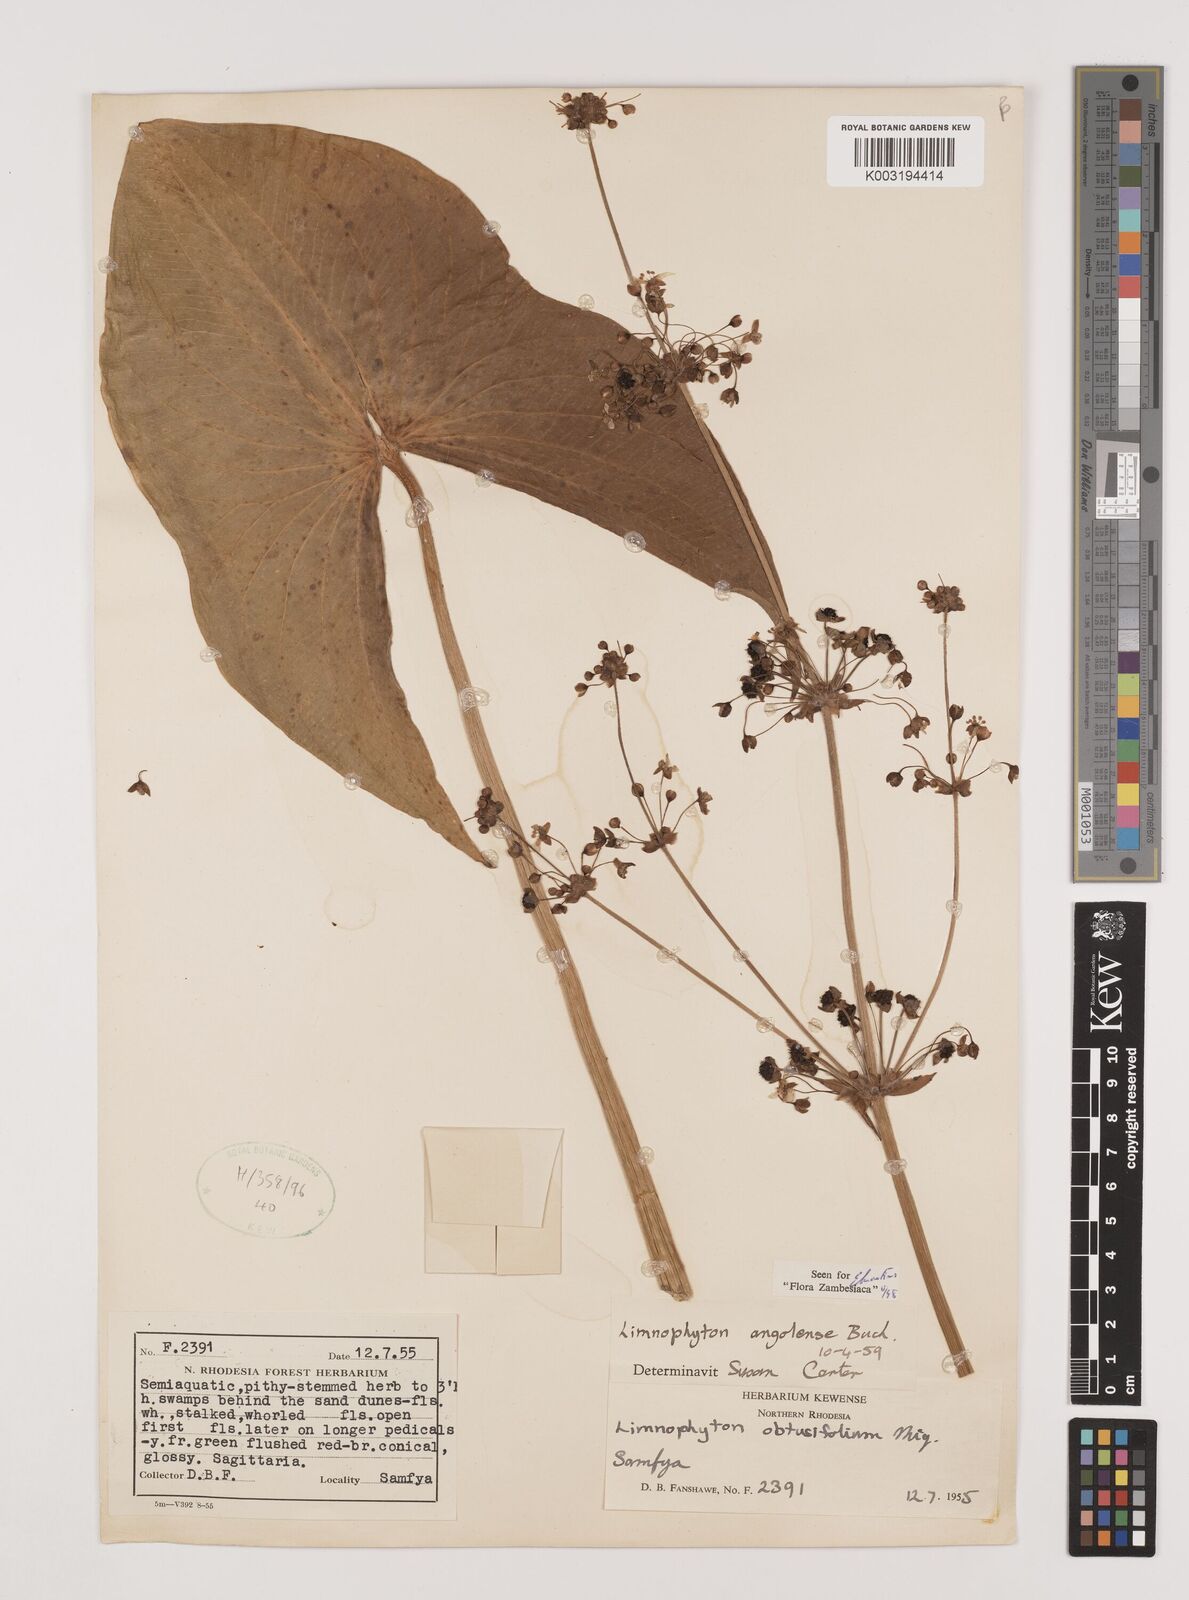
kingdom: Plantae
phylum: Tracheophyta
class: Liliopsida
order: Alismatales
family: Alismataceae
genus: Limnophyton
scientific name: Limnophyton angolense
